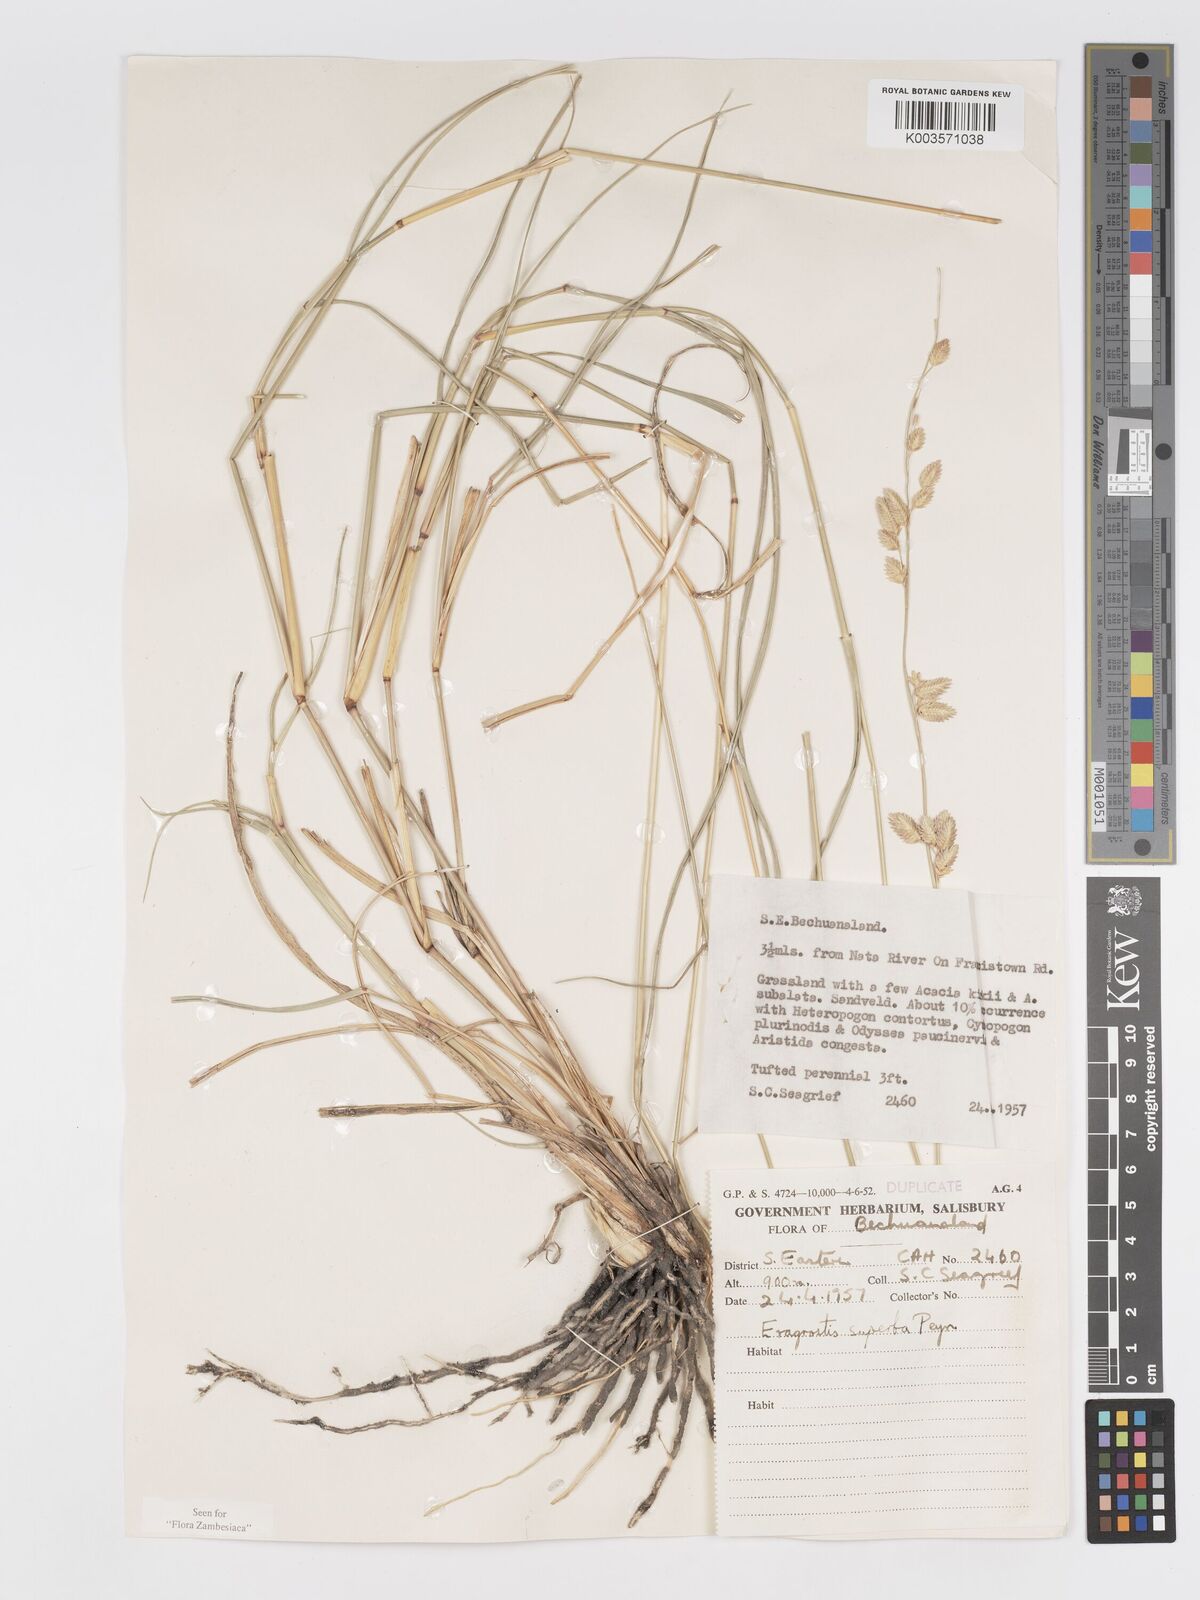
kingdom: Plantae
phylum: Tracheophyta
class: Liliopsida
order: Poales
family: Poaceae
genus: Eragrostis
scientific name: Eragrostis superba
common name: Wilman lovegrass
